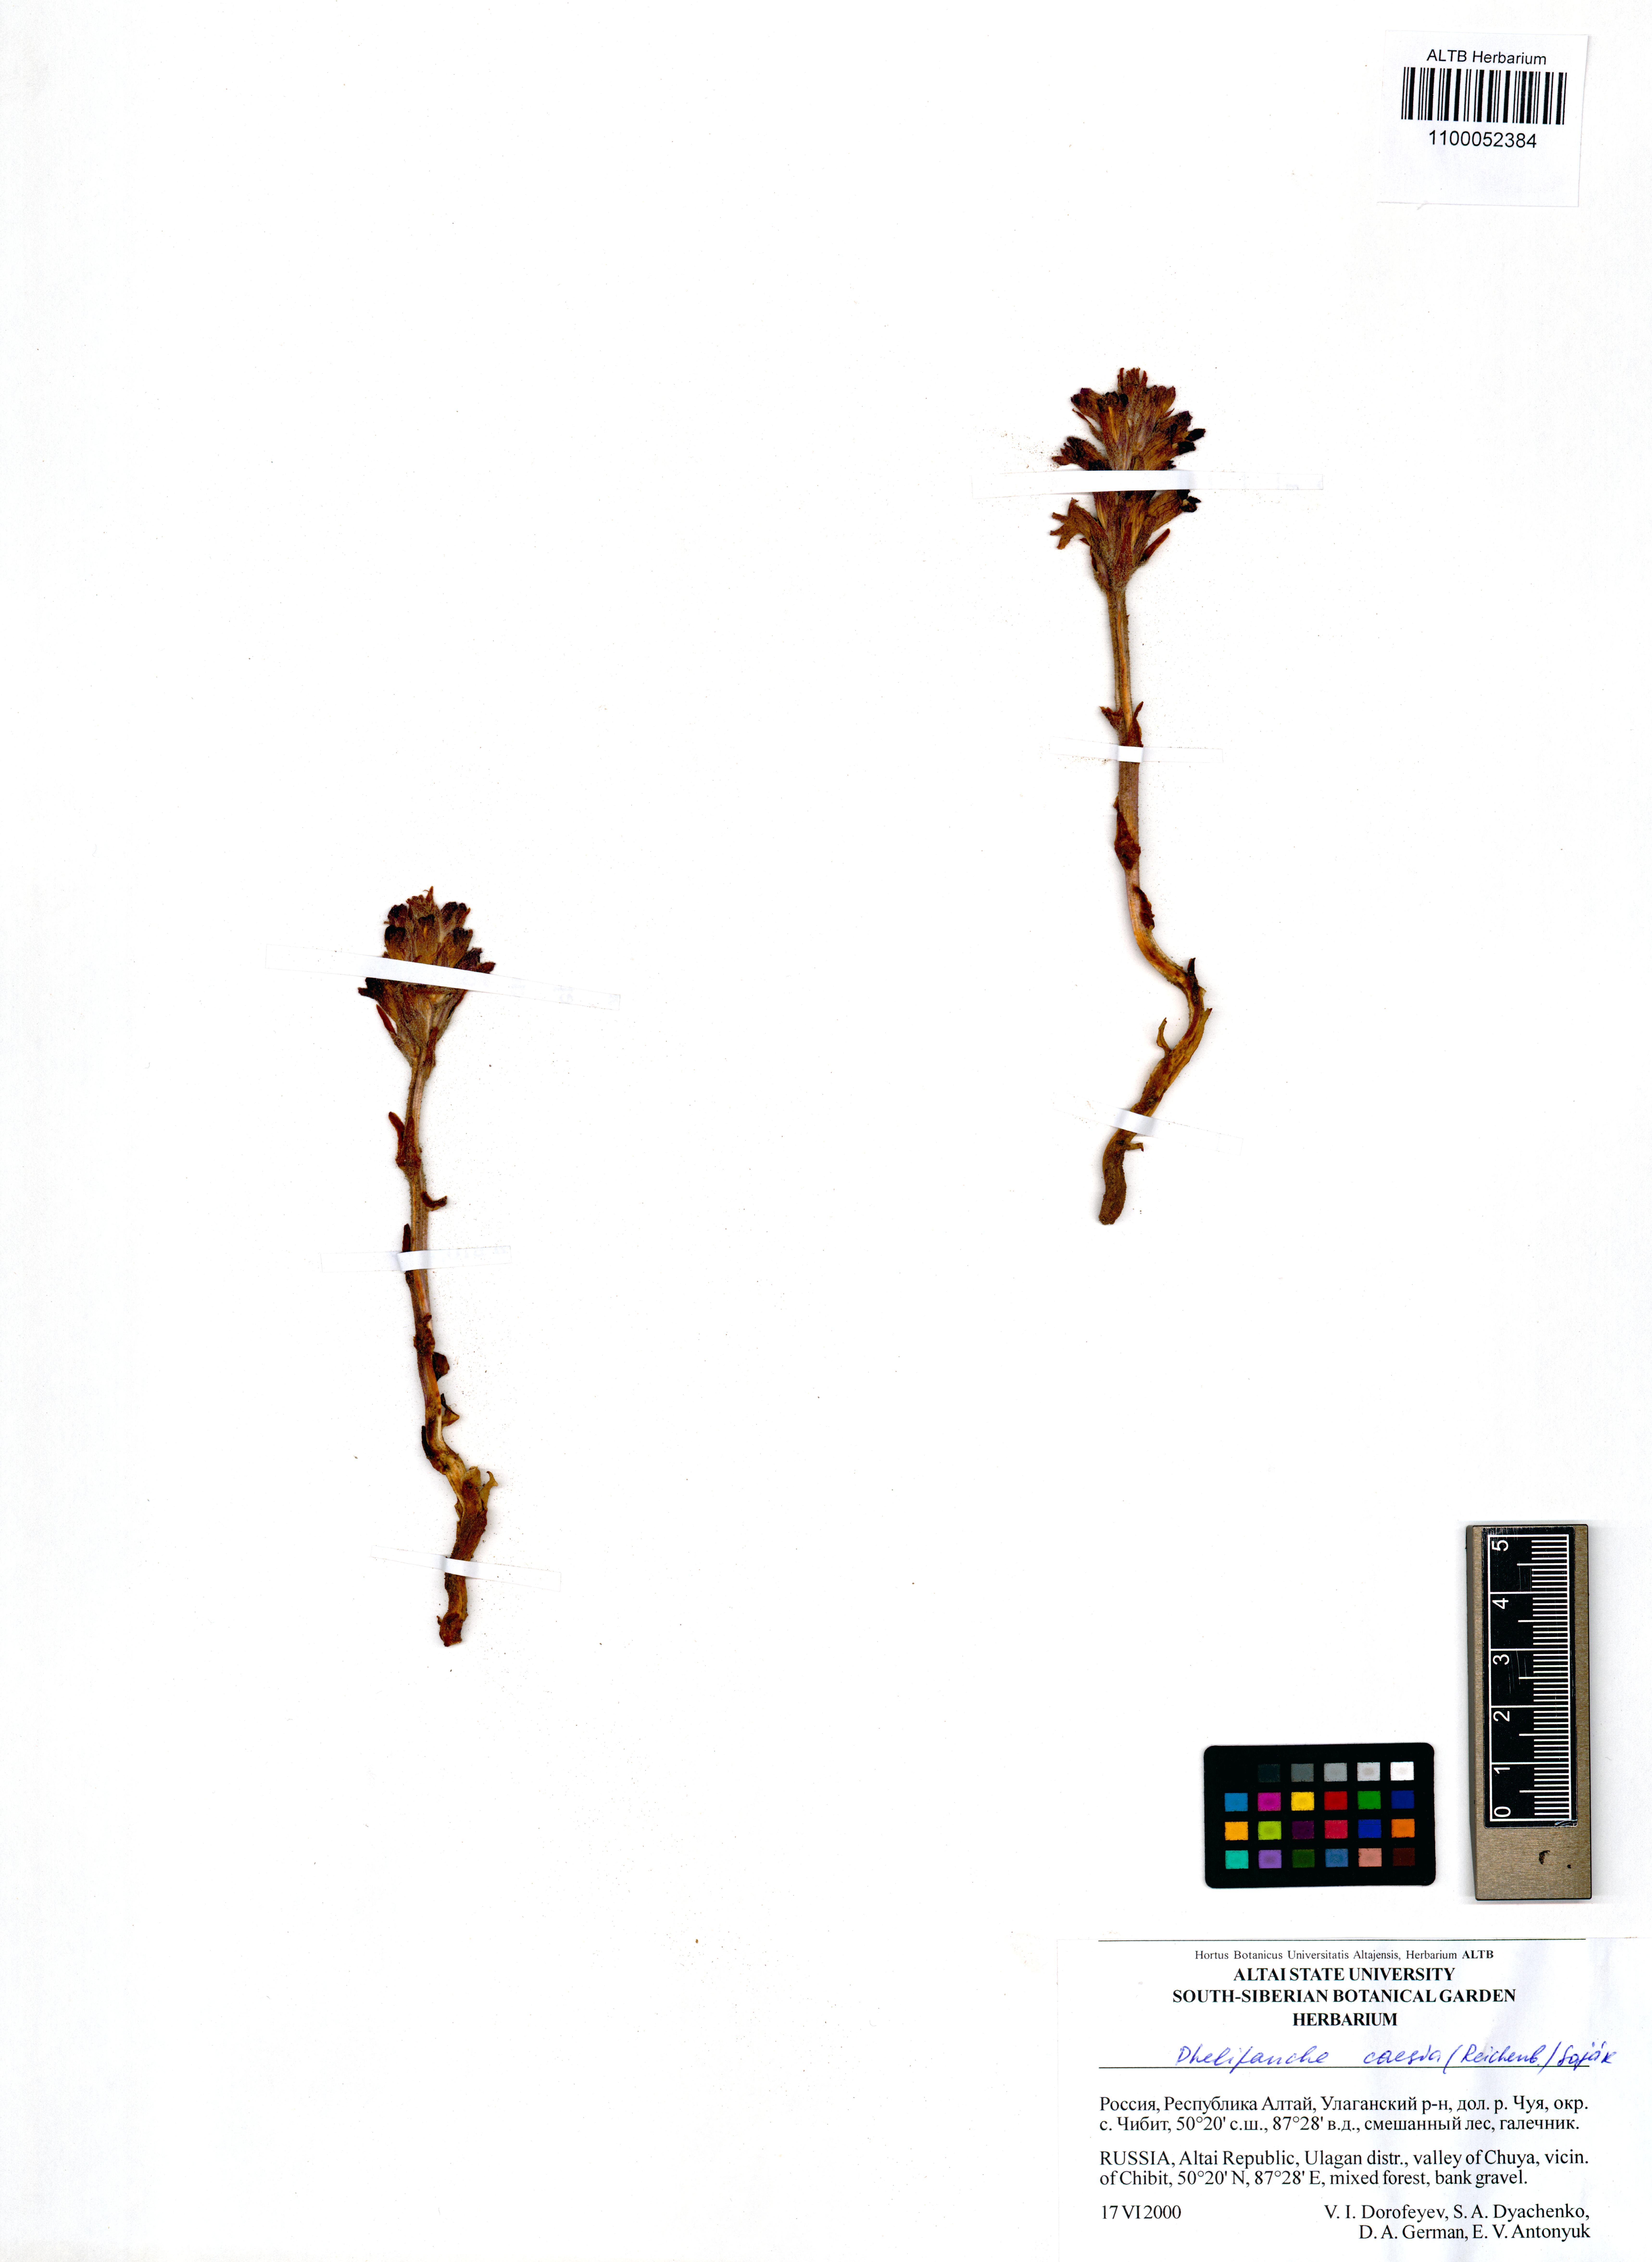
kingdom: Plantae
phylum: Tracheophyta
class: Magnoliopsida
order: Lamiales
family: Orobanchaceae
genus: Phelipanche
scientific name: Phelipanche caesia
